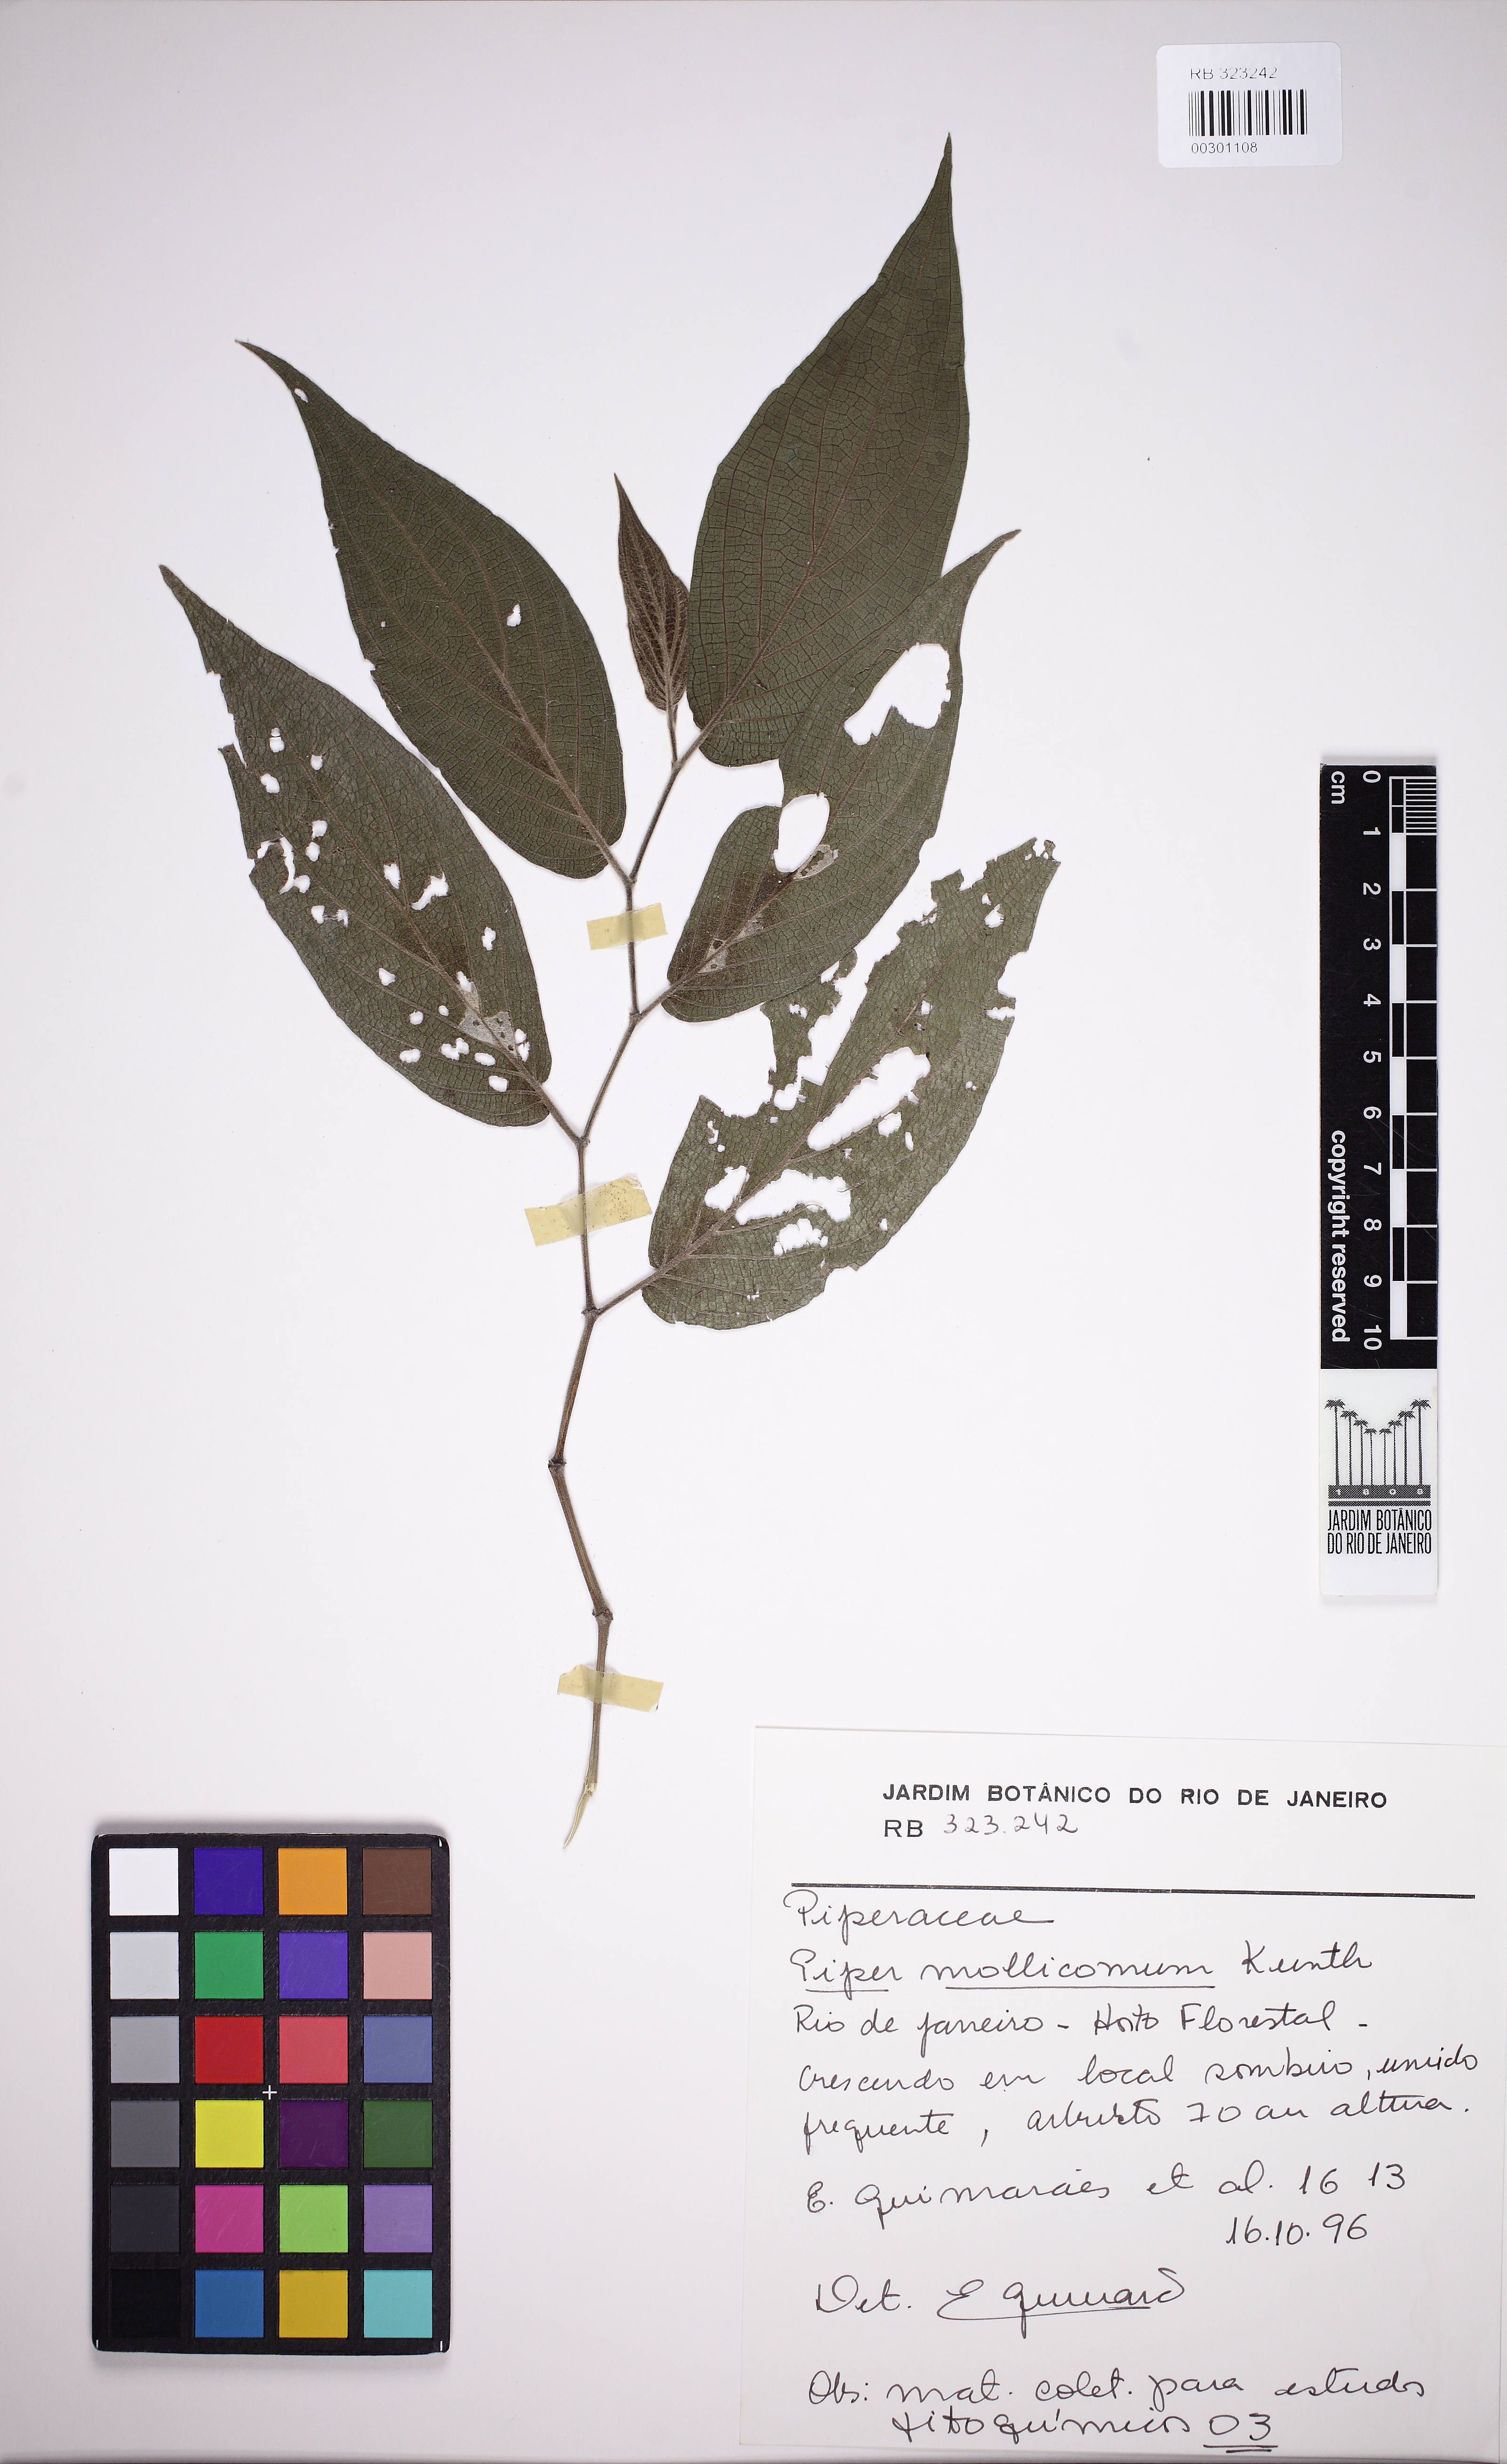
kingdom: Plantae
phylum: Tracheophyta
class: Magnoliopsida
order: Piperales
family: Piperaceae
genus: Piper
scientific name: Piper mollicomum
